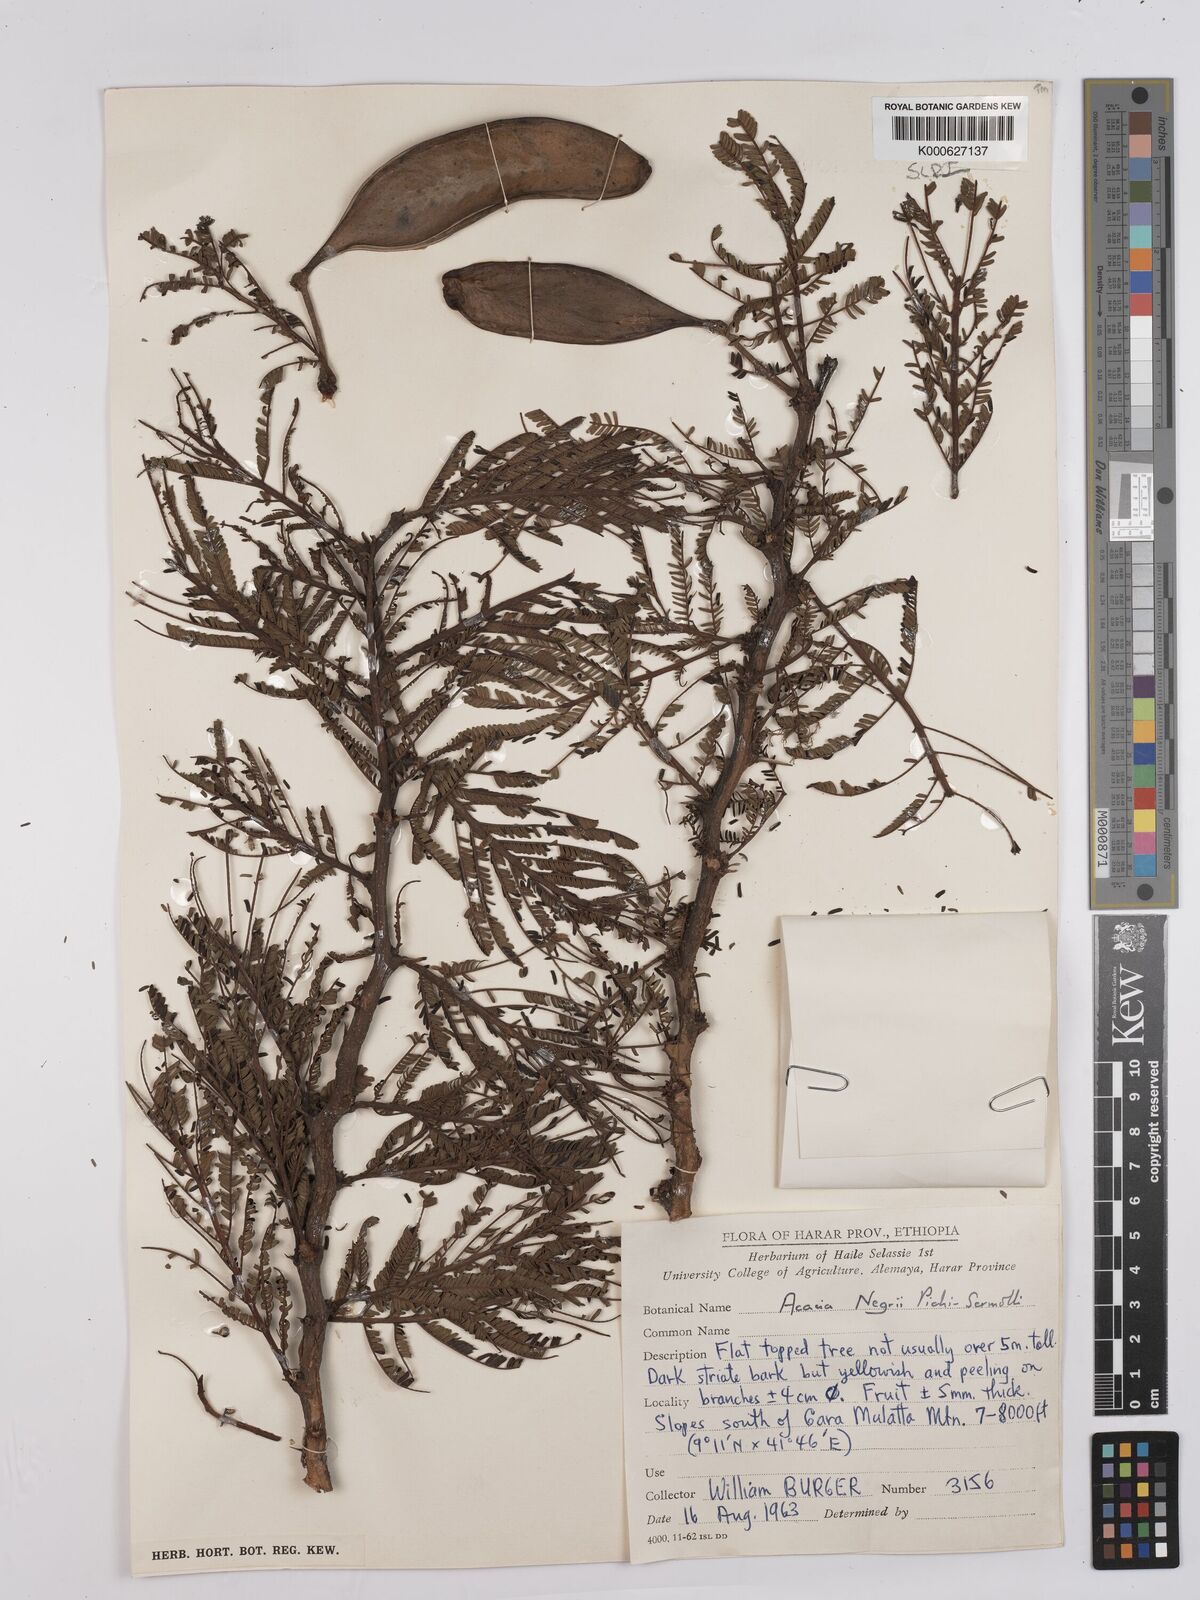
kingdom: Plantae
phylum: Tracheophyta
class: Magnoliopsida
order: Fabales
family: Fabaceae
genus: Vachellia
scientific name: Vachellia negrii
